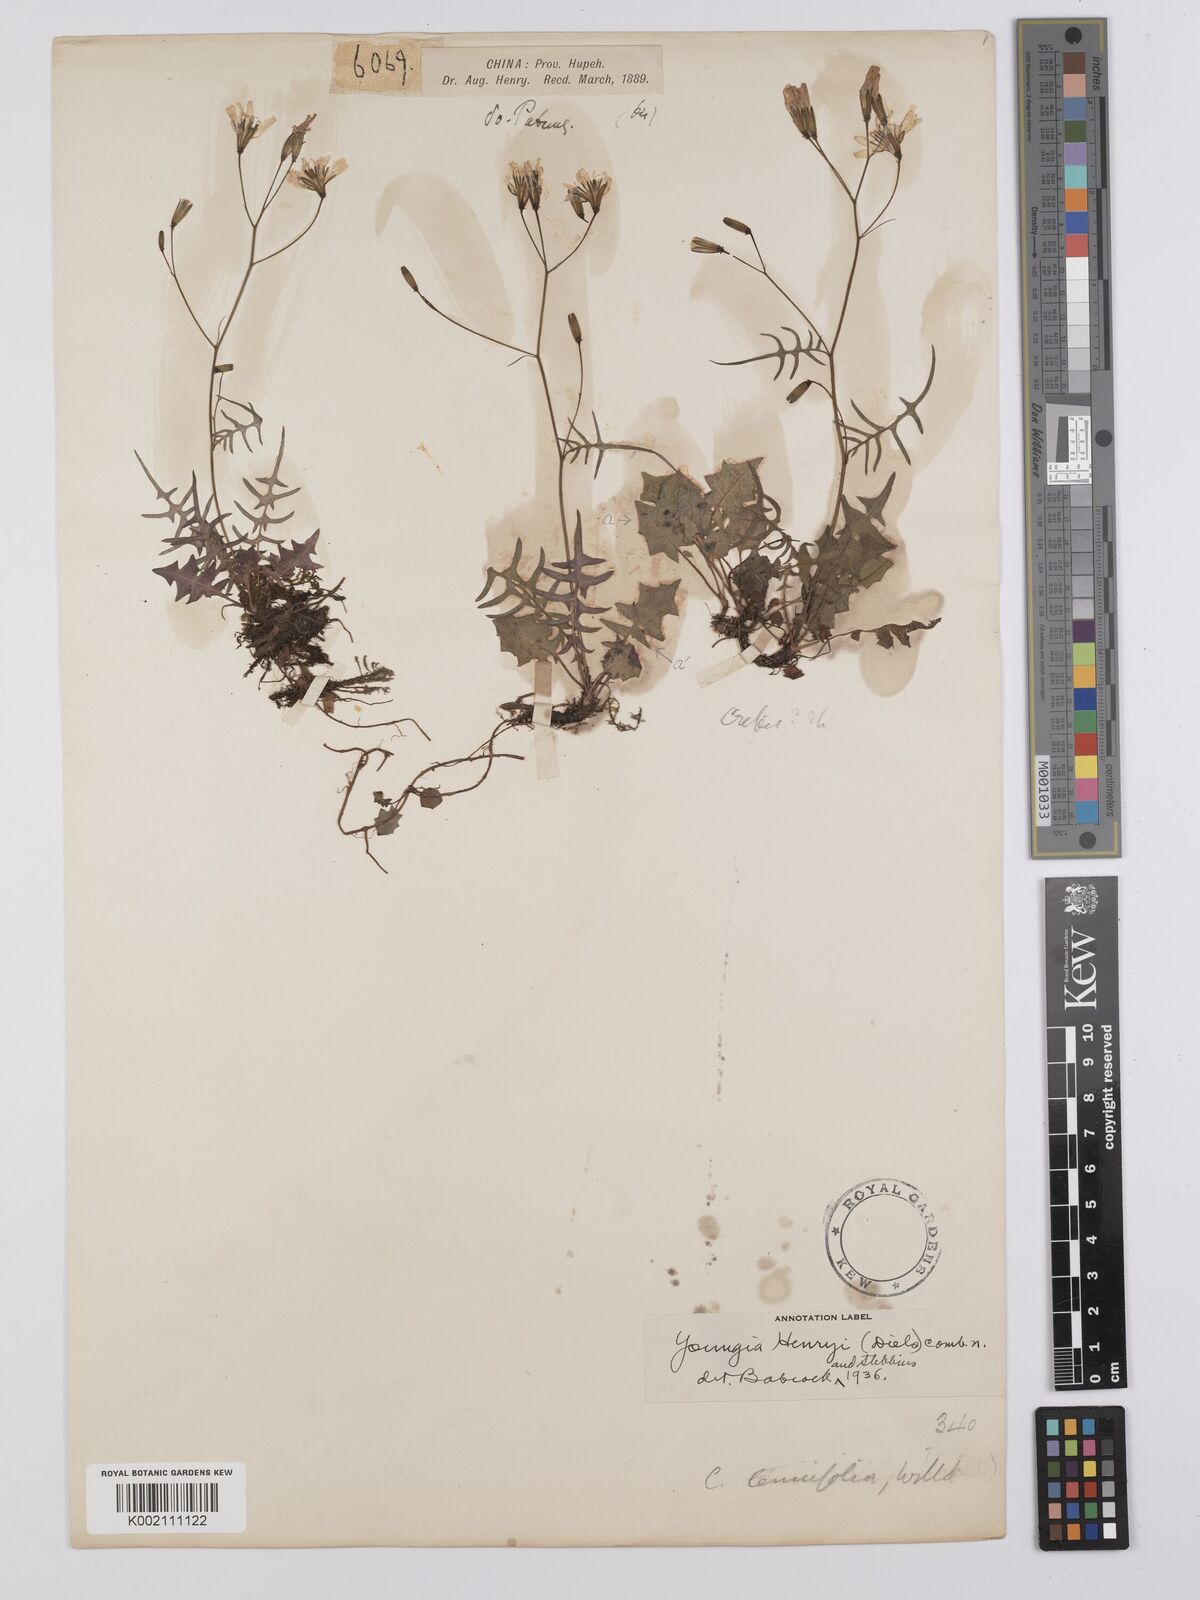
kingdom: Plantae
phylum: Tracheophyta
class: Magnoliopsida
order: Asterales
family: Asteraceae
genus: Youngia
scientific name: Youngia henryi
